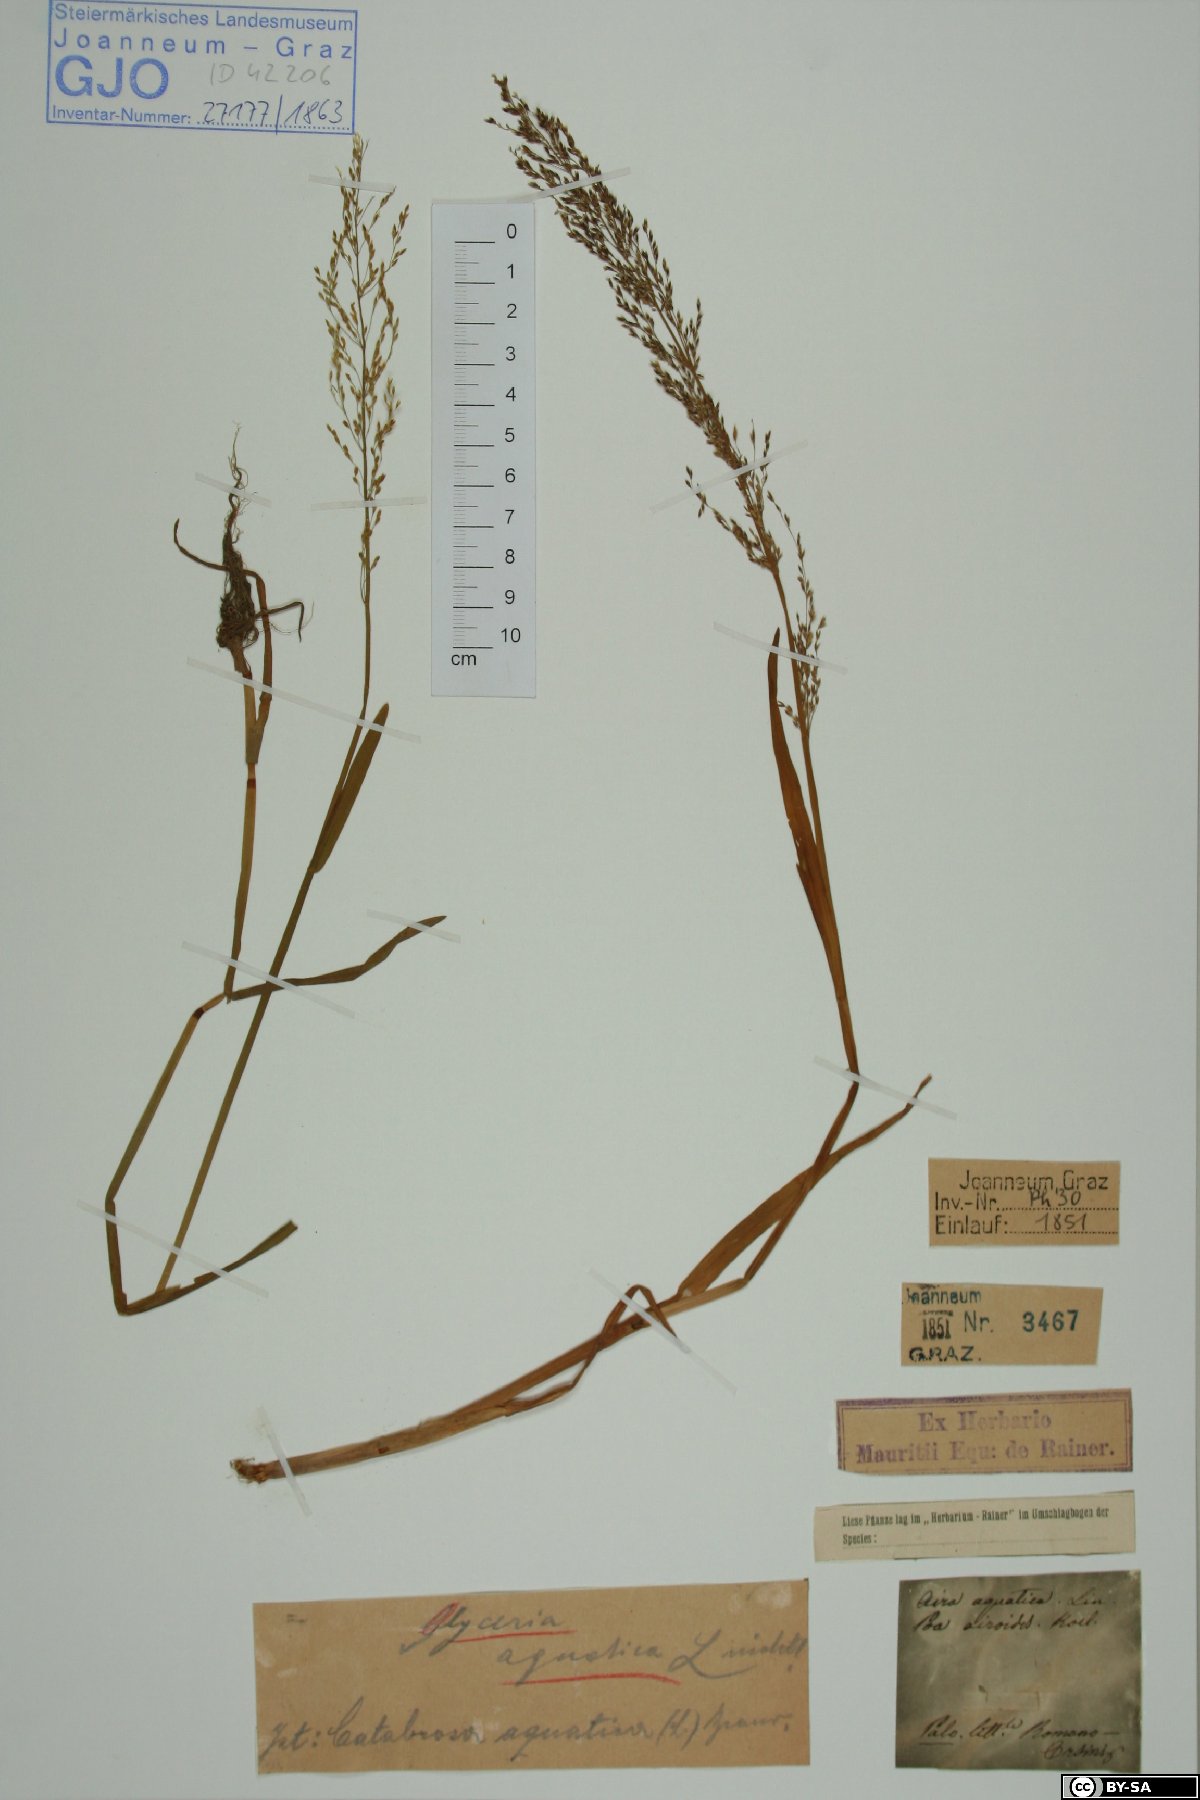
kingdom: Plantae
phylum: Tracheophyta
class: Liliopsida
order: Poales
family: Poaceae
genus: Catabrosa
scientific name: Catabrosa aquatica
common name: Whorl-grass
